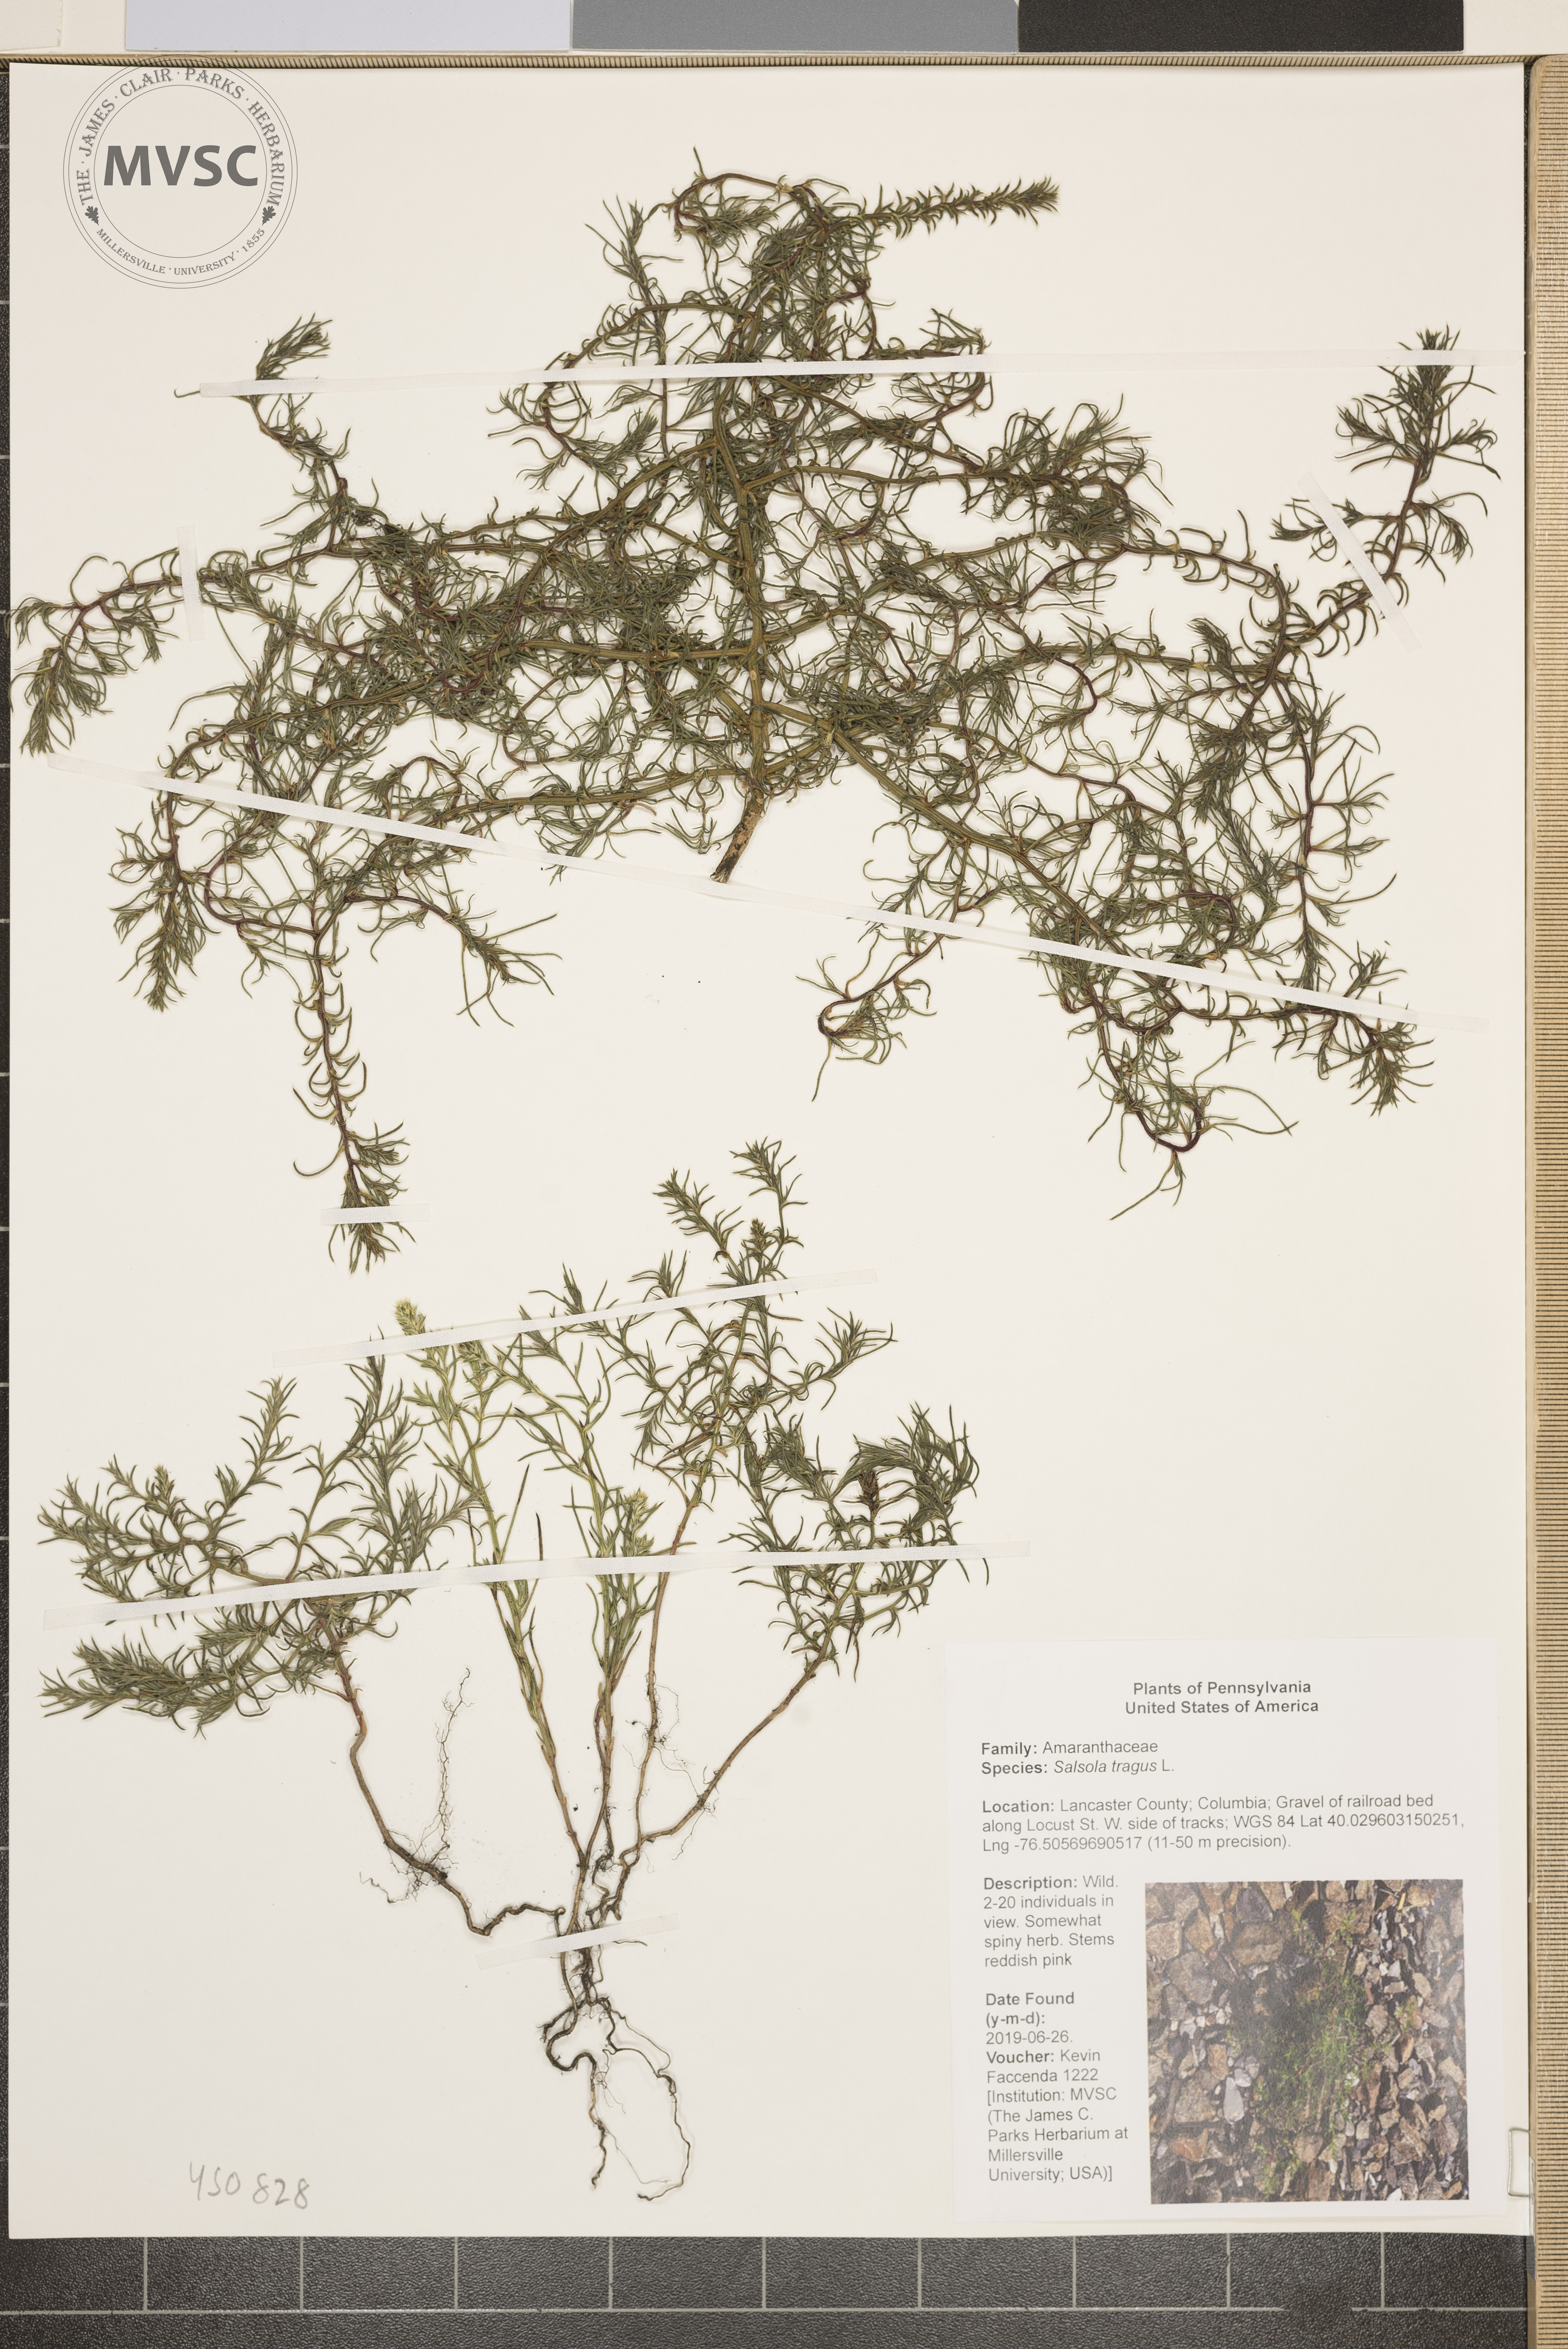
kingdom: Plantae
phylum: Tracheophyta
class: Magnoliopsida
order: Caryophyllales
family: Amaranthaceae
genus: Salsola
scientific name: Salsola tragus
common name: Prickly russian thistle
